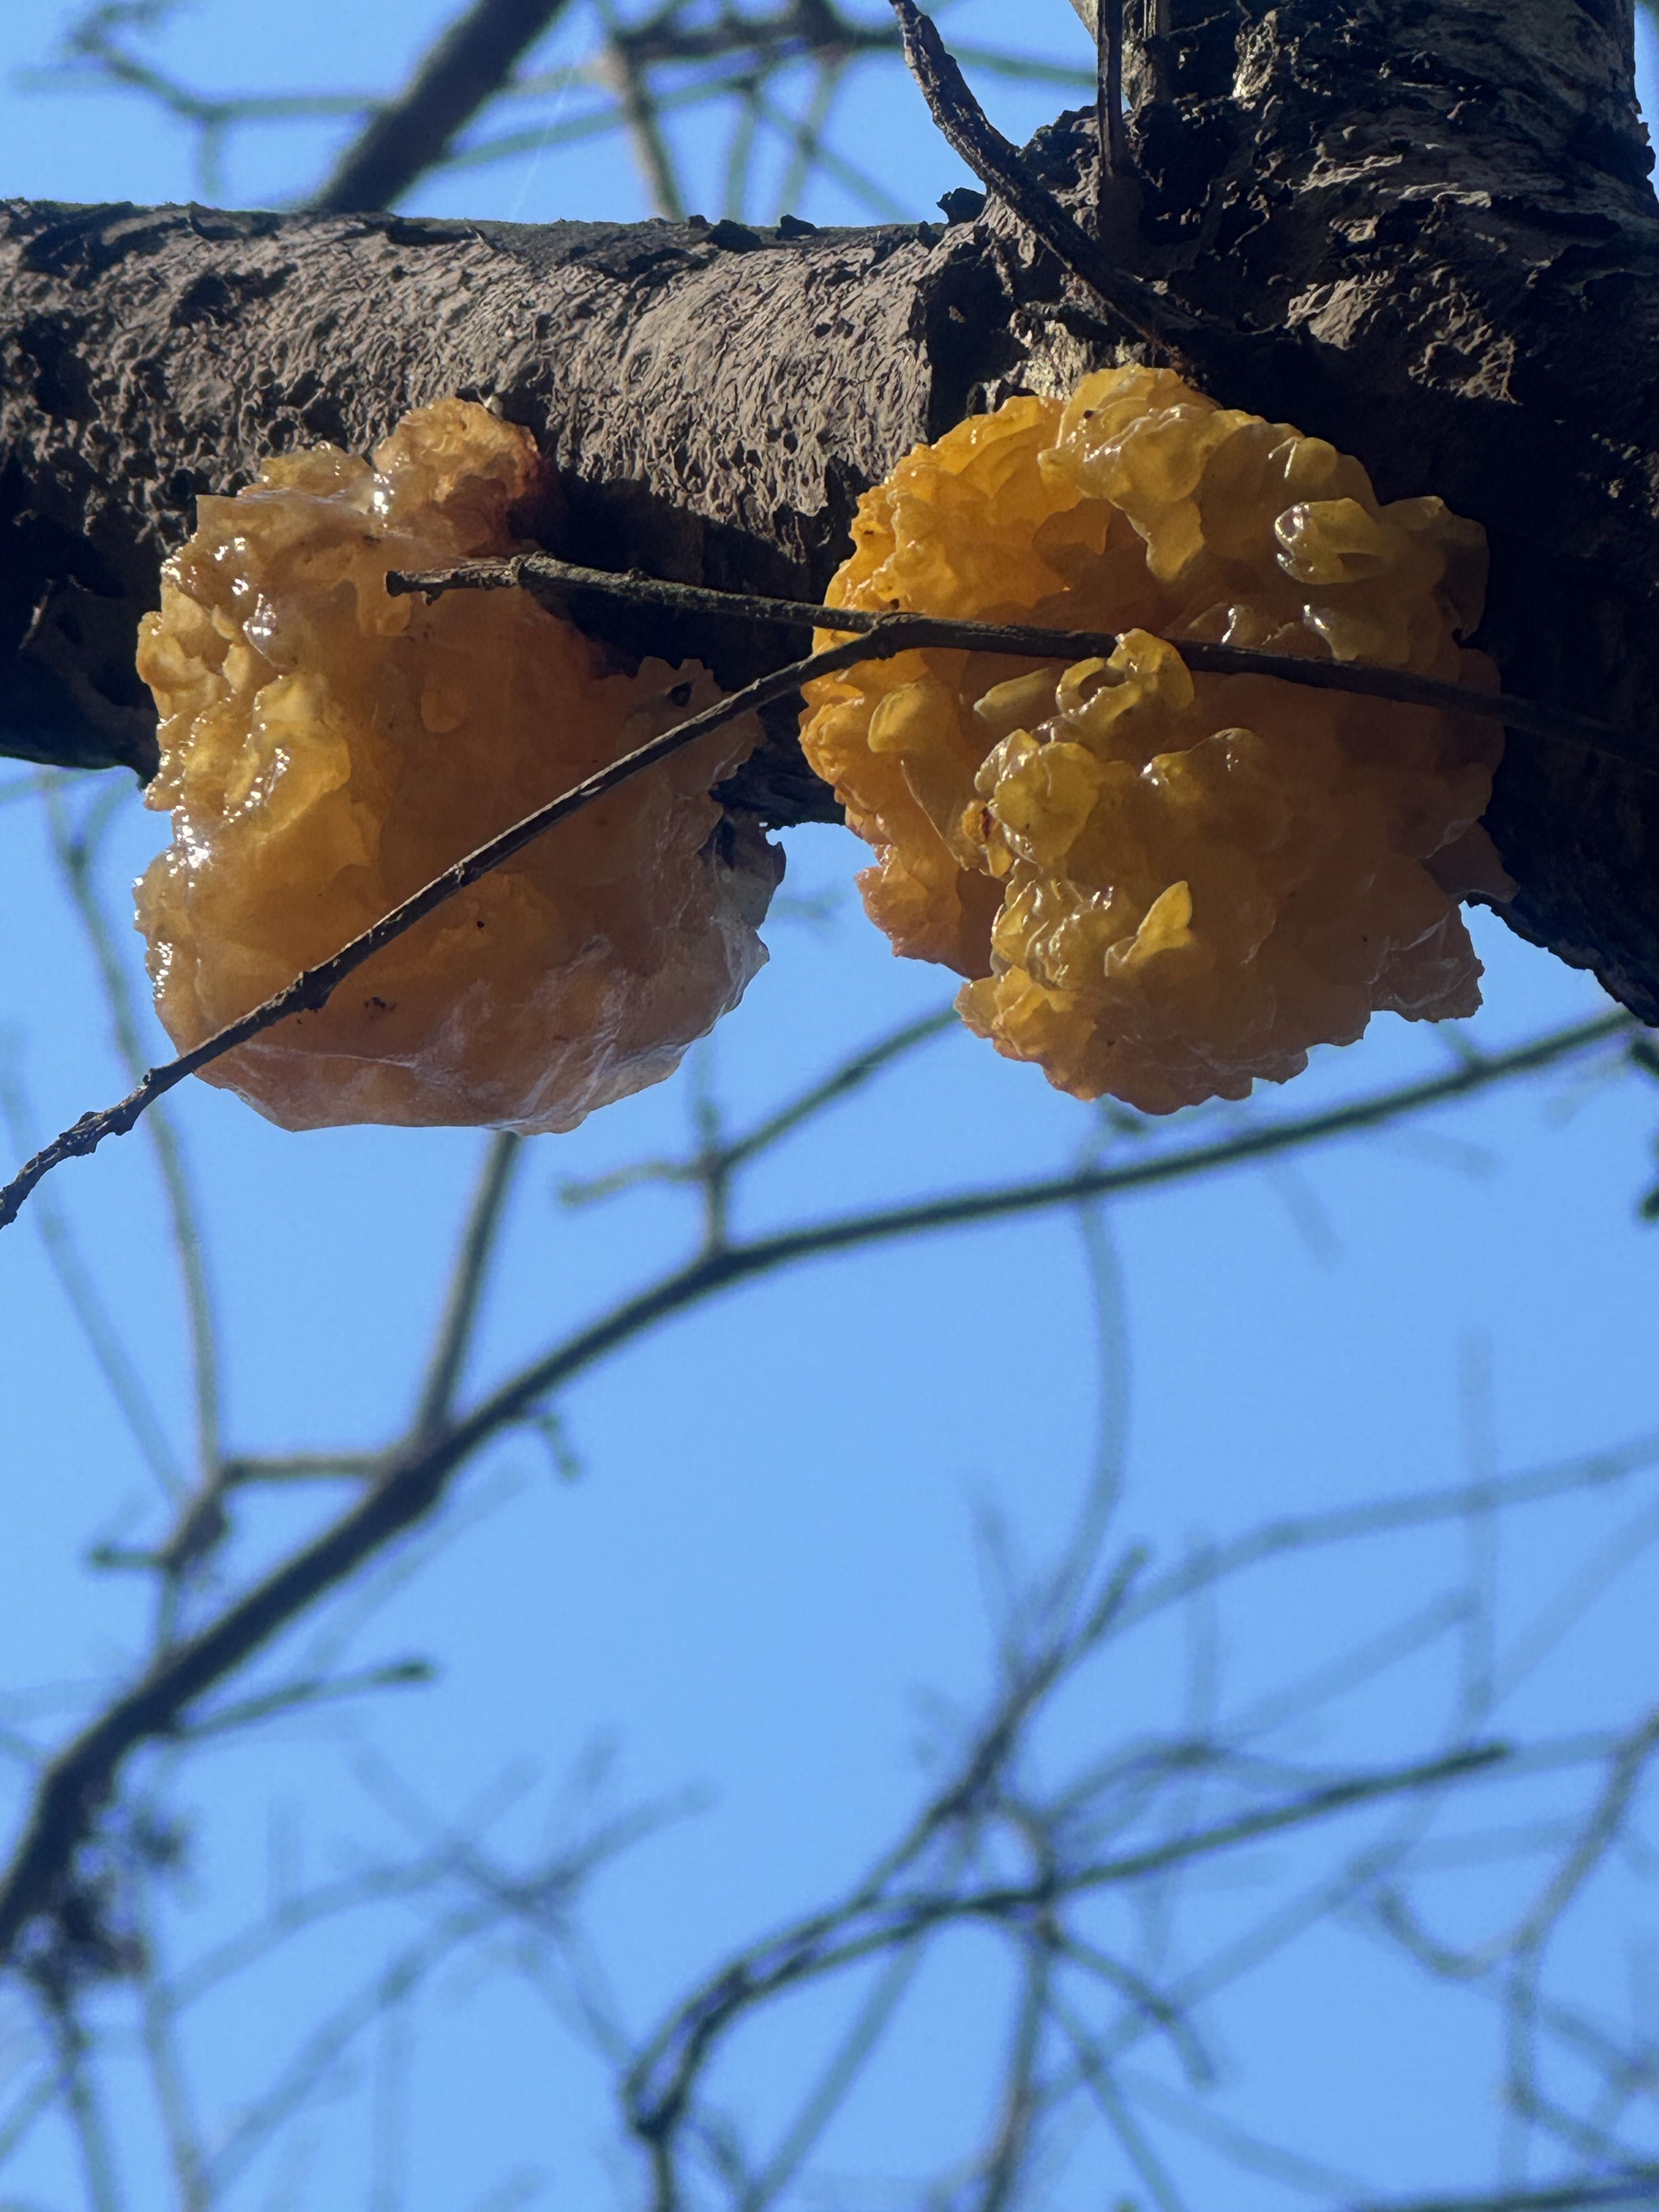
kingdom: Fungi
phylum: Basidiomycota
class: Tremellomycetes
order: Tremellales
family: Tremellaceae
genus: Tremella
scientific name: Tremella mesenterica
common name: gul bævresvamp
